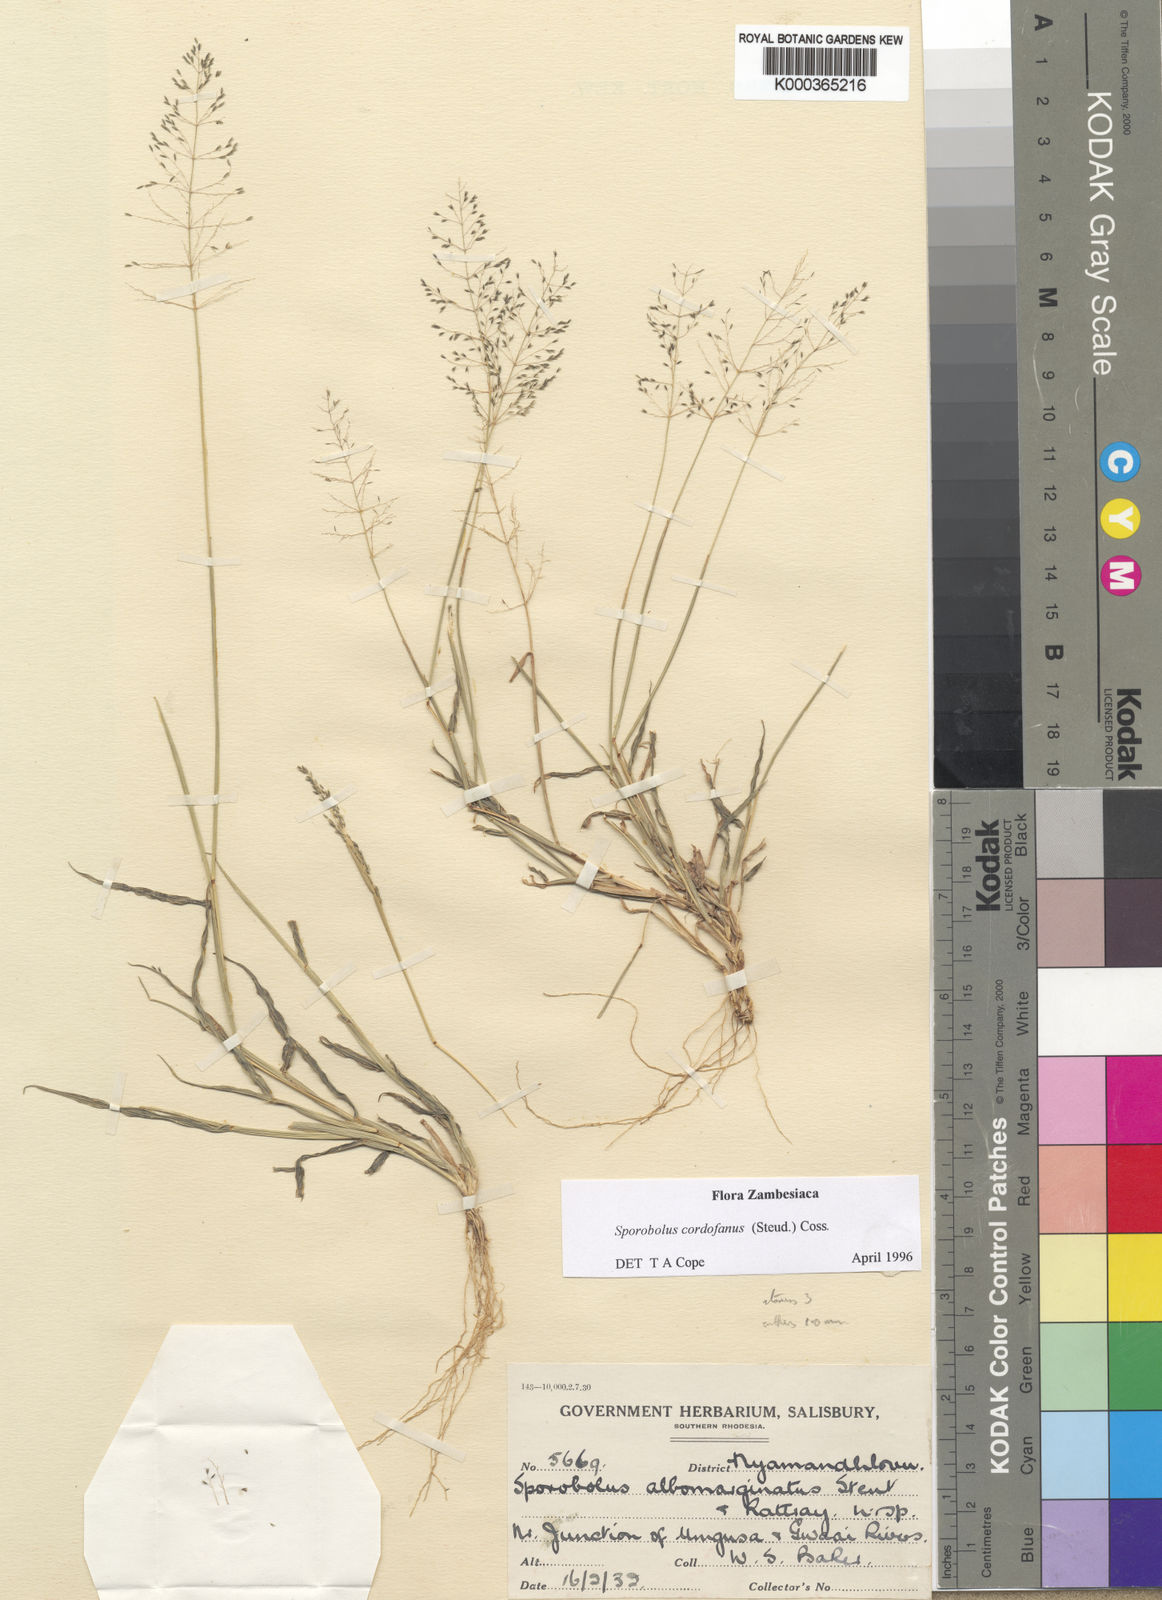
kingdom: Plantae
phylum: Tracheophyta
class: Liliopsida
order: Poales
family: Poaceae
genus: Sporobolus
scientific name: Sporobolus cordofanus
